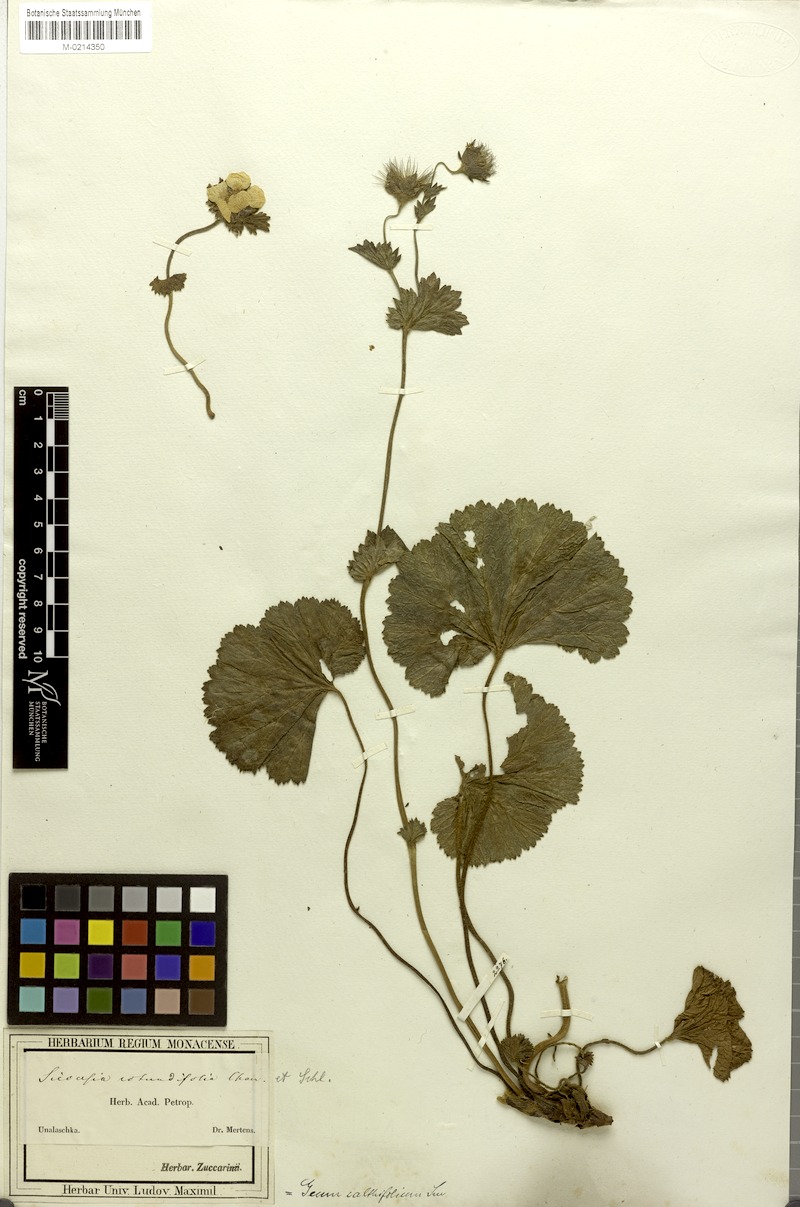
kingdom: Plantae
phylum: Tracheophyta
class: Magnoliopsida
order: Rosales
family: Rosaceae
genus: Geum
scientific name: Geum calthifolium
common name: Caltha-leaved avens
